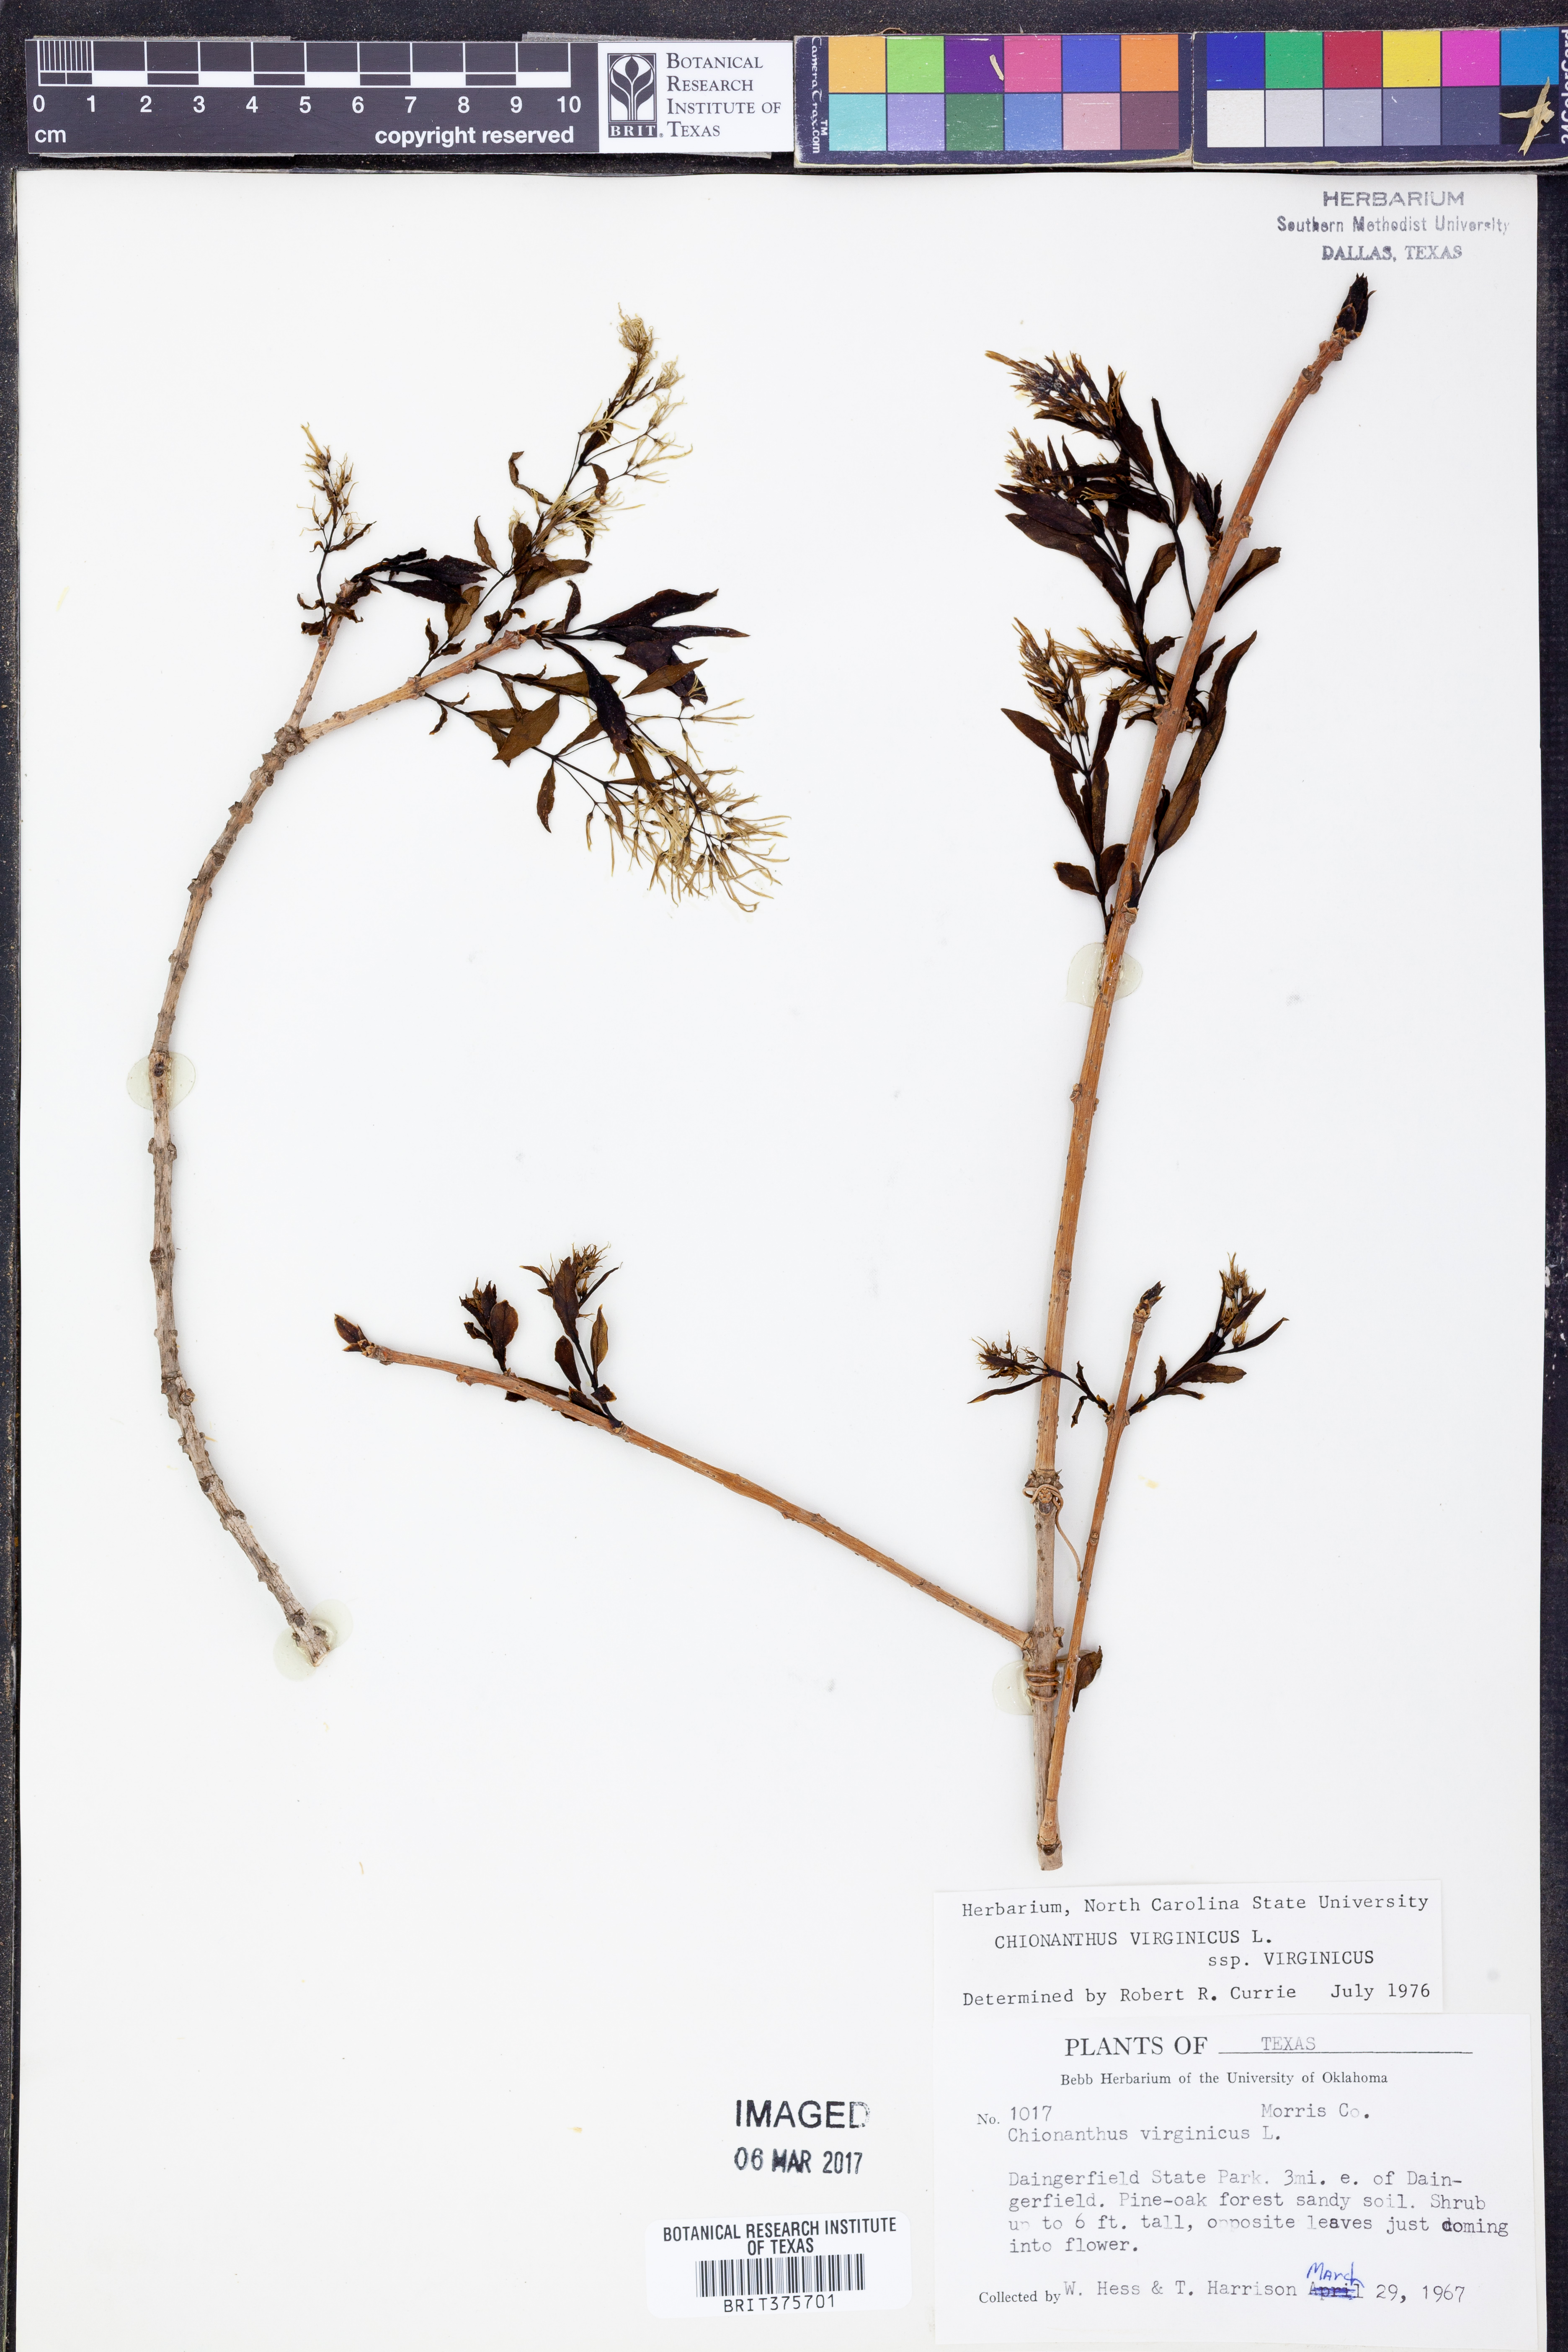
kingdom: Plantae
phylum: Tracheophyta
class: Magnoliopsida
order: Lamiales
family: Oleaceae
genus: Chionanthus
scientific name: Chionanthus virginicus
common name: American fringetree
